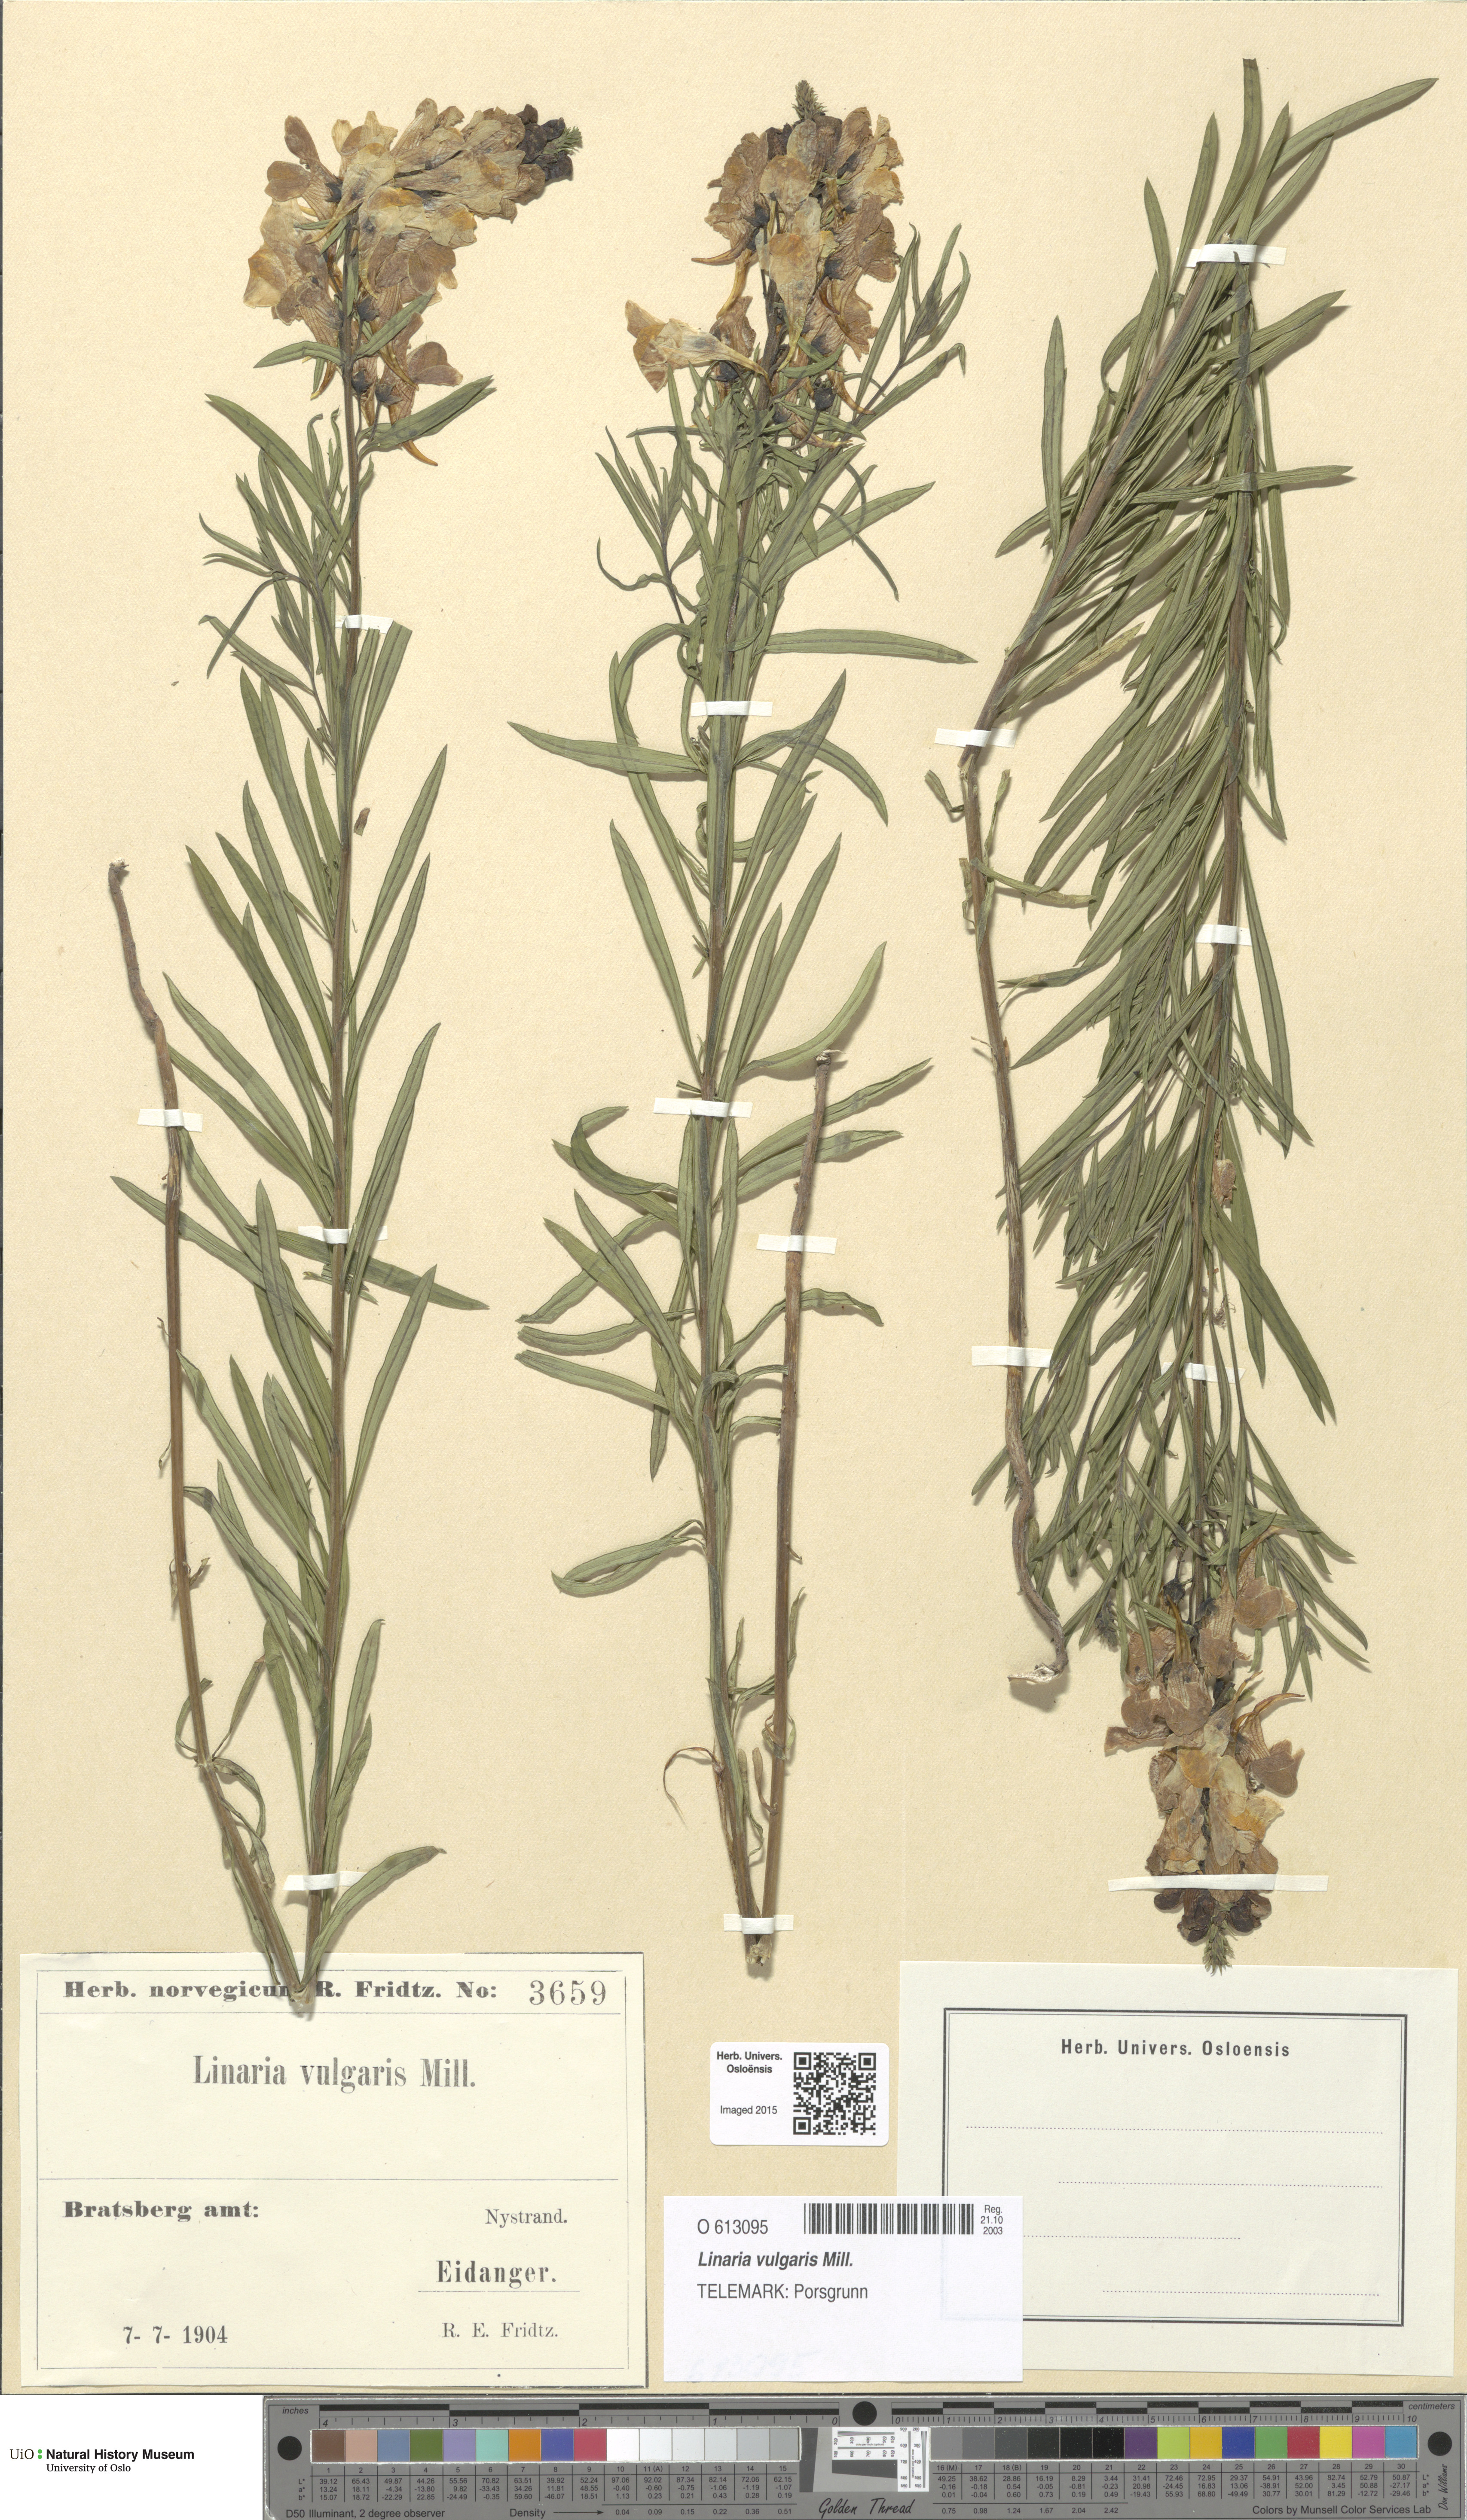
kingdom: Plantae
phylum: Tracheophyta
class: Magnoliopsida
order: Lamiales
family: Plantaginaceae
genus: Linaria
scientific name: Linaria vulgaris
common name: Butter and eggs
